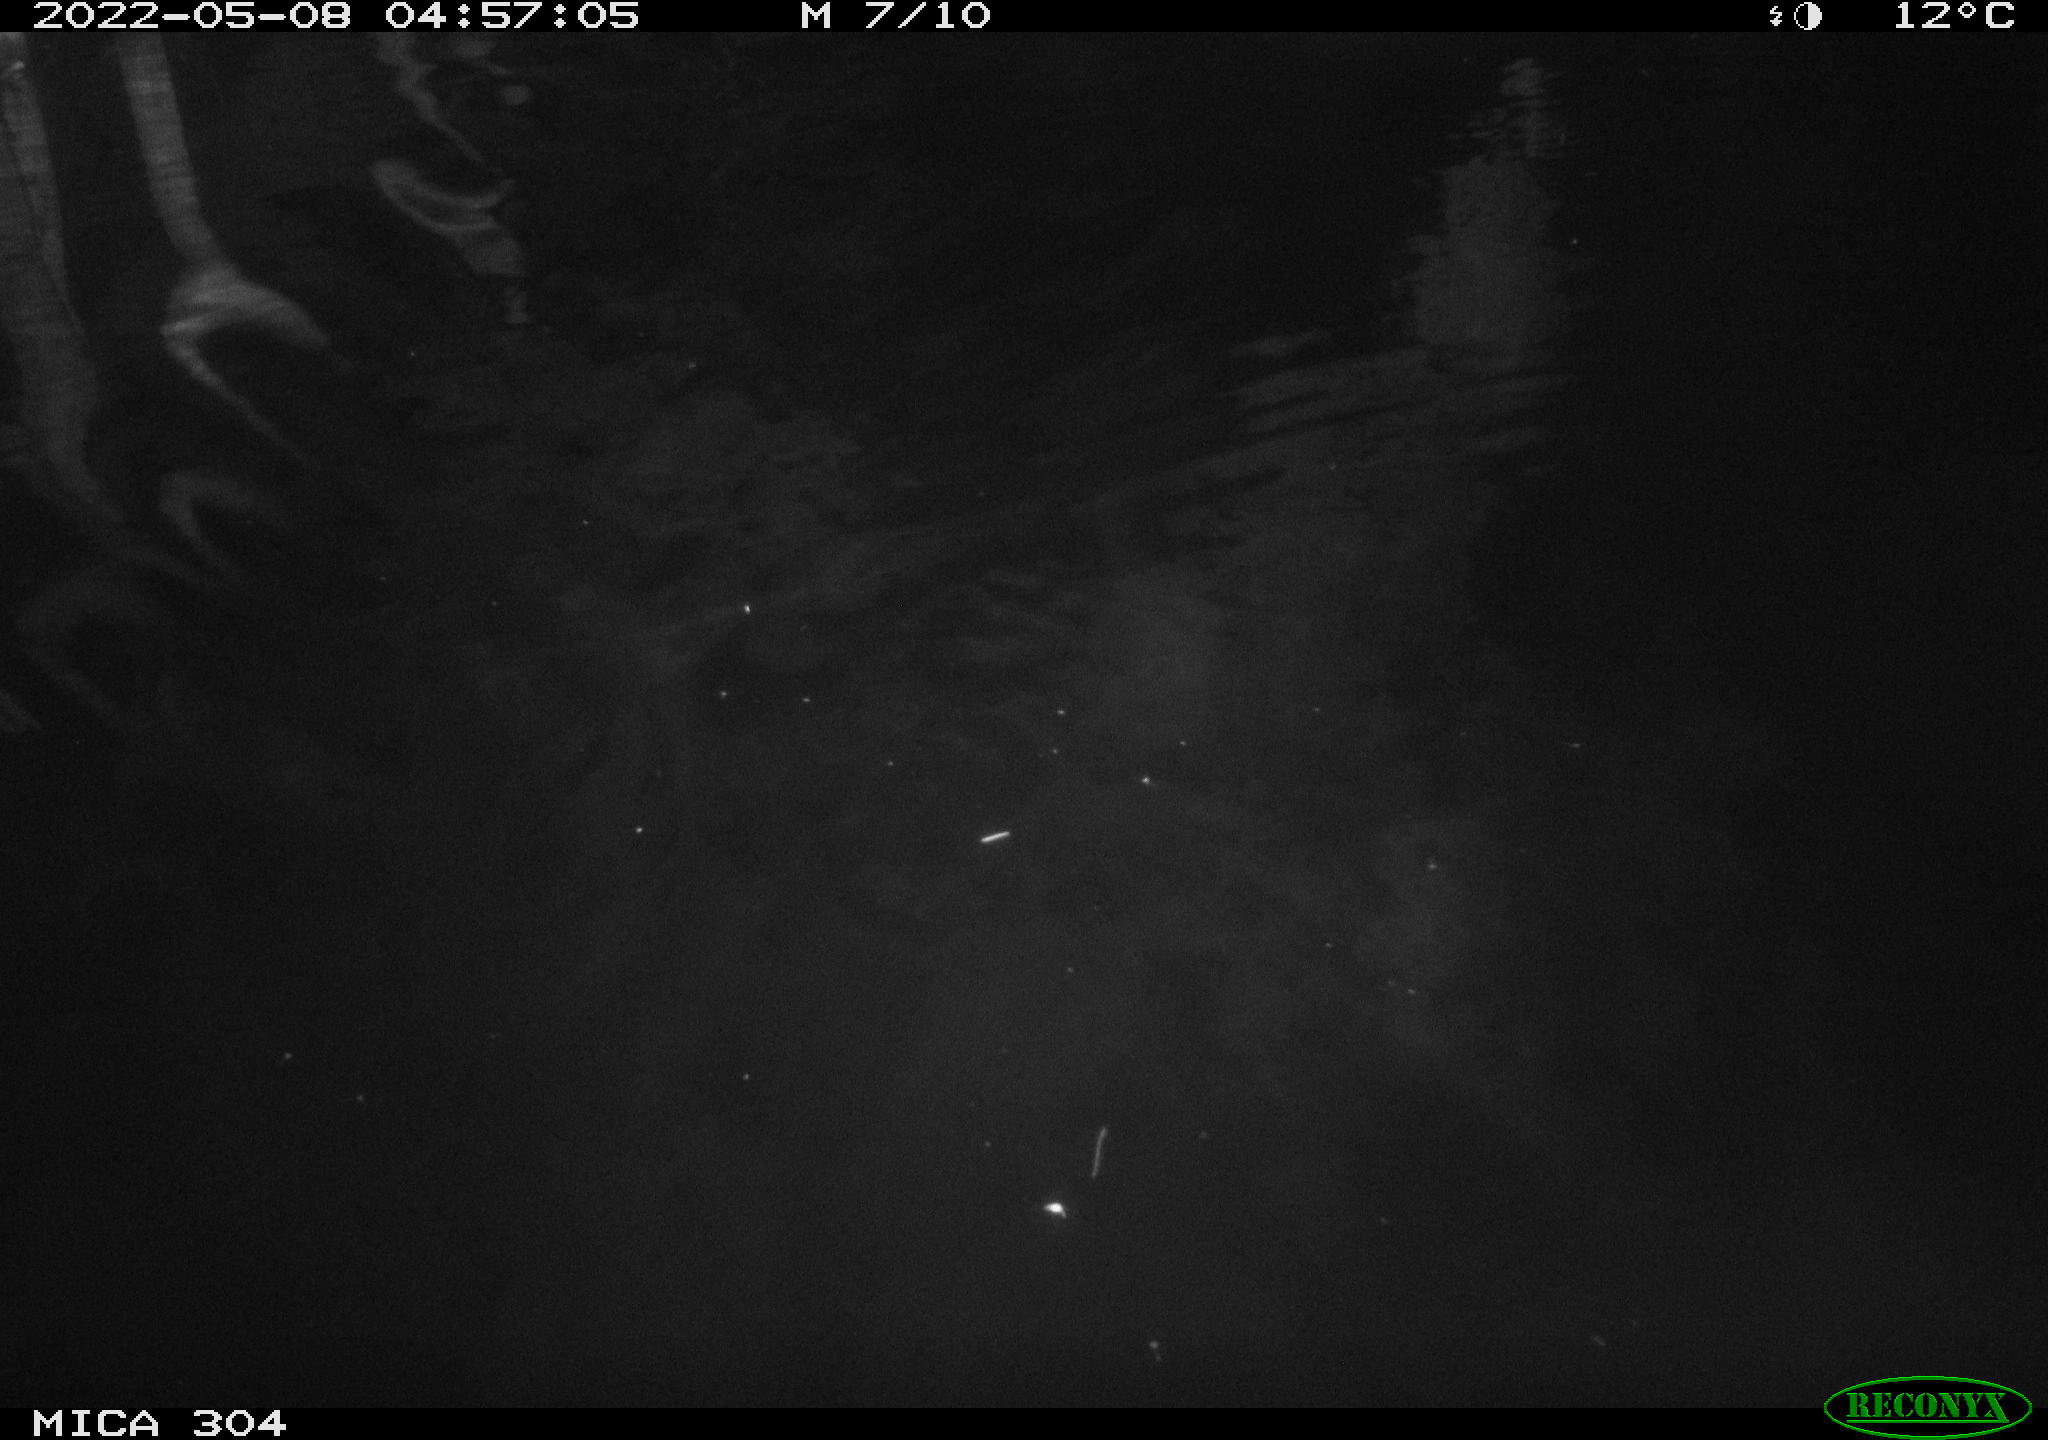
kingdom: Animalia
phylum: Chordata
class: Mammalia
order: Rodentia
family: Cricetidae
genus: Ondatra
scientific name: Ondatra zibethicus
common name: Muskrat
